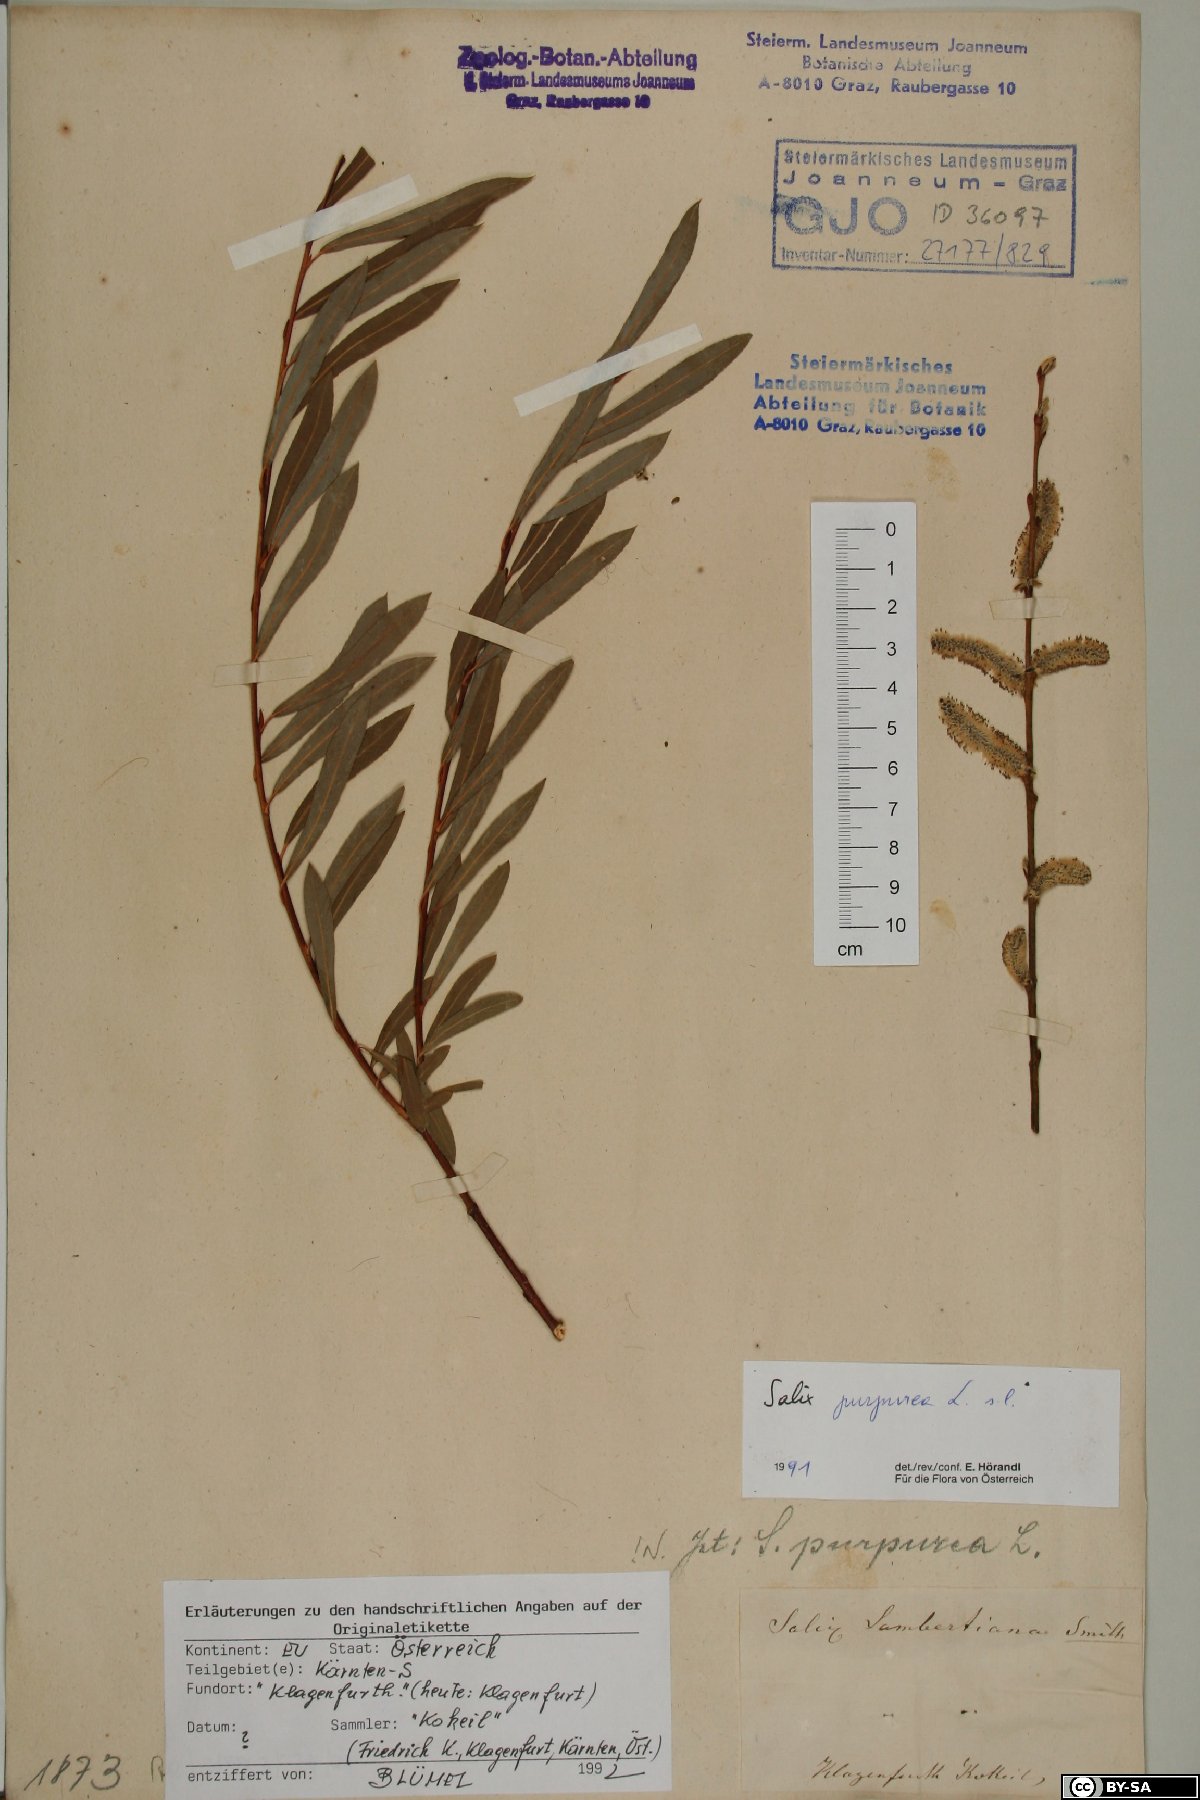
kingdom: Plantae
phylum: Tracheophyta
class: Magnoliopsida
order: Malpighiales
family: Salicaceae
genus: Salix
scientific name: Salix purpurea
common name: Purple willow
